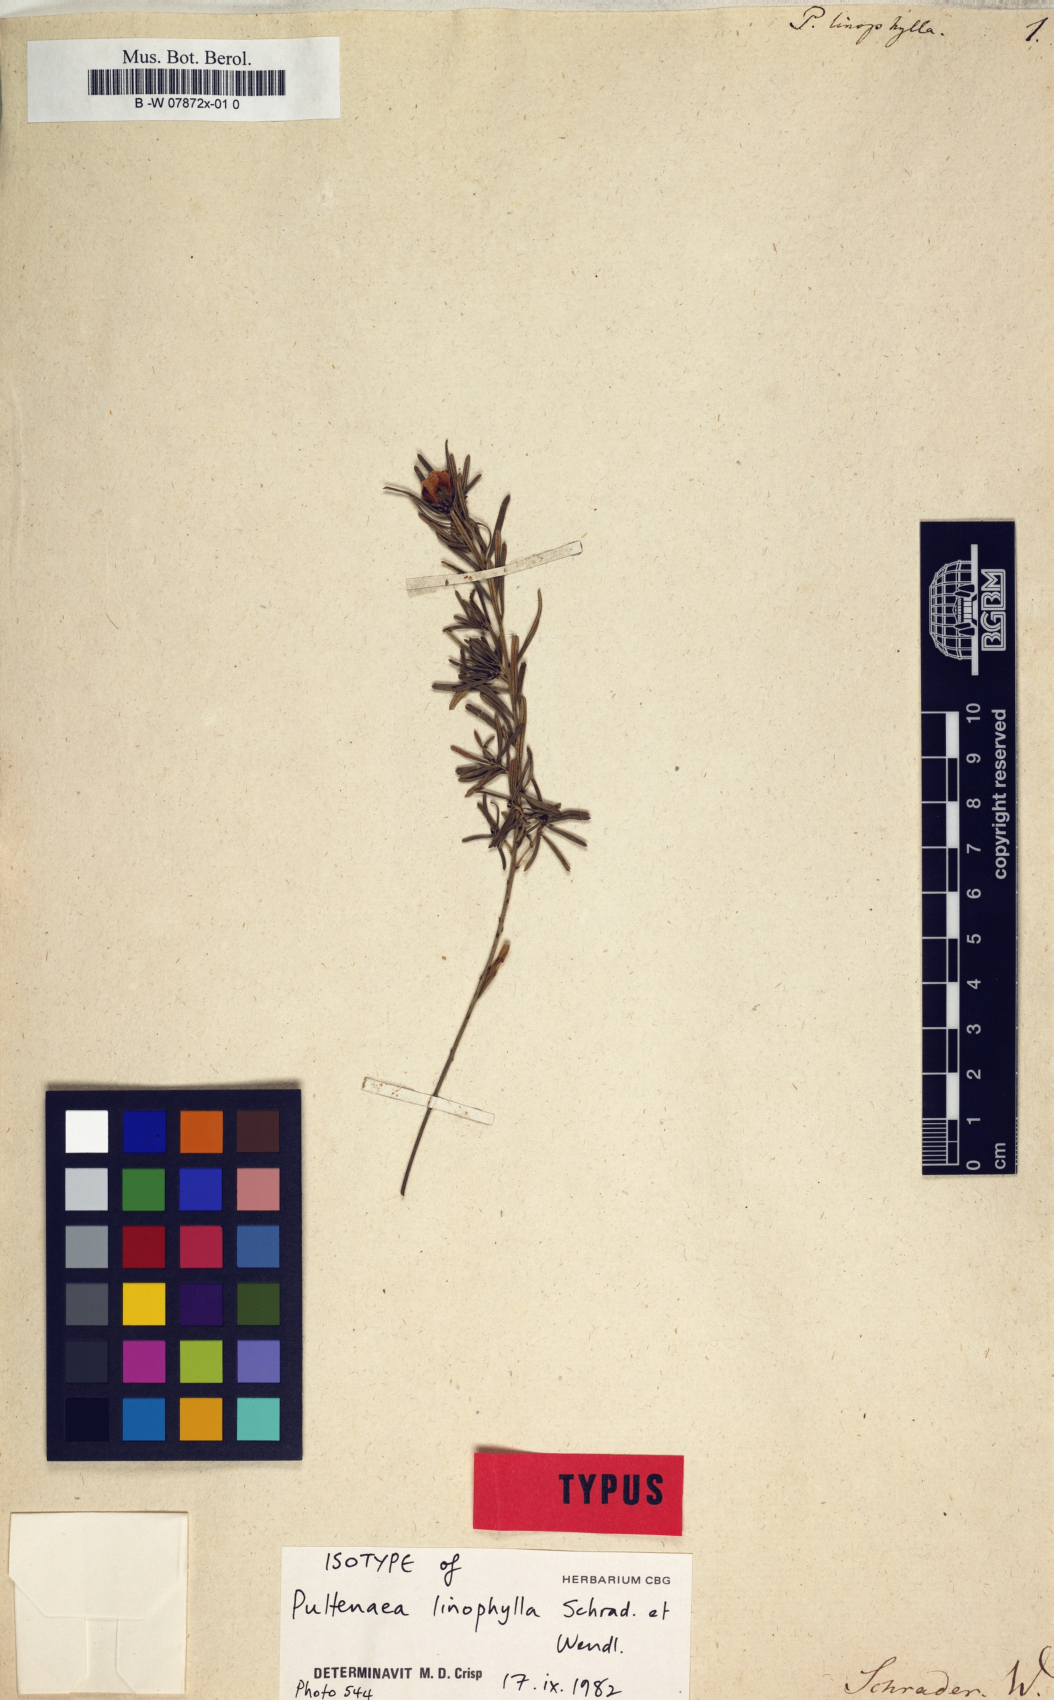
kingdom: Plantae
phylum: Tracheophyta
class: Magnoliopsida
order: Fabales
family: Fabaceae
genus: Pultenaea
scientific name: Pultenaea linophylla
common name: Halo bush-pea
